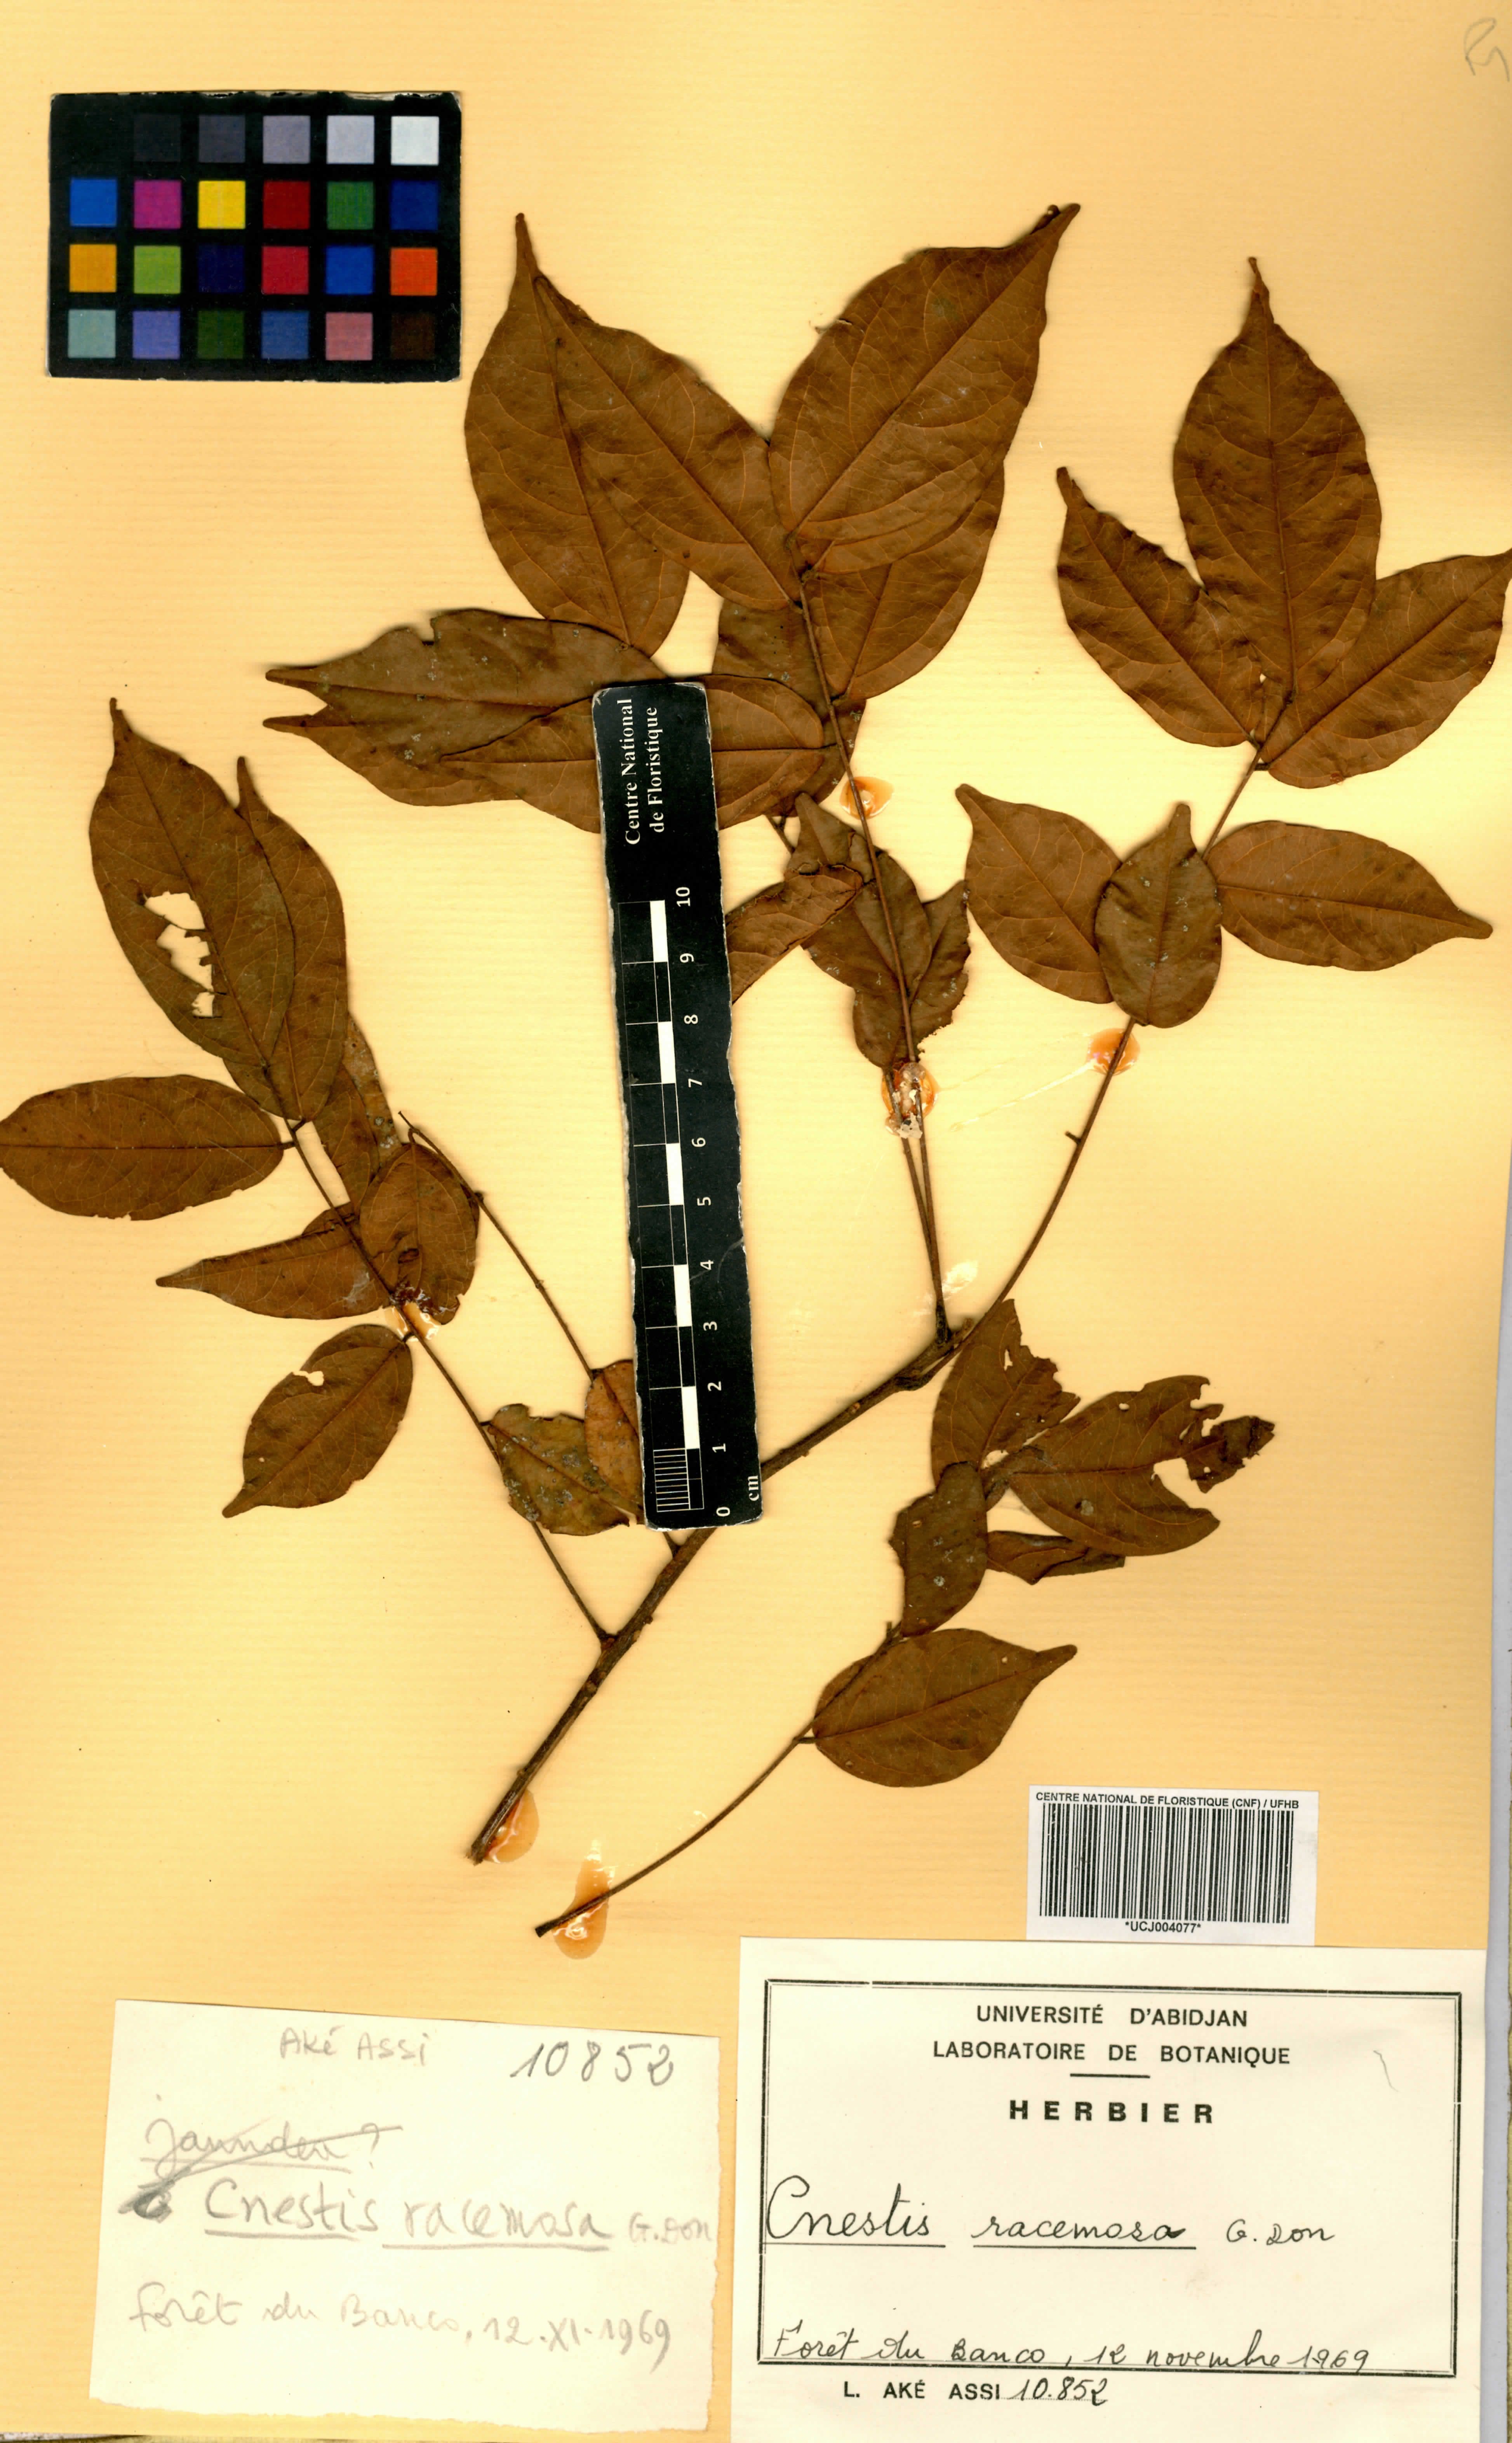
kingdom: Plantae
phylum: Tracheophyta
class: Magnoliopsida
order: Oxalidales
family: Connaraceae
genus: Cnestis
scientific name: Cnestis racemosa
